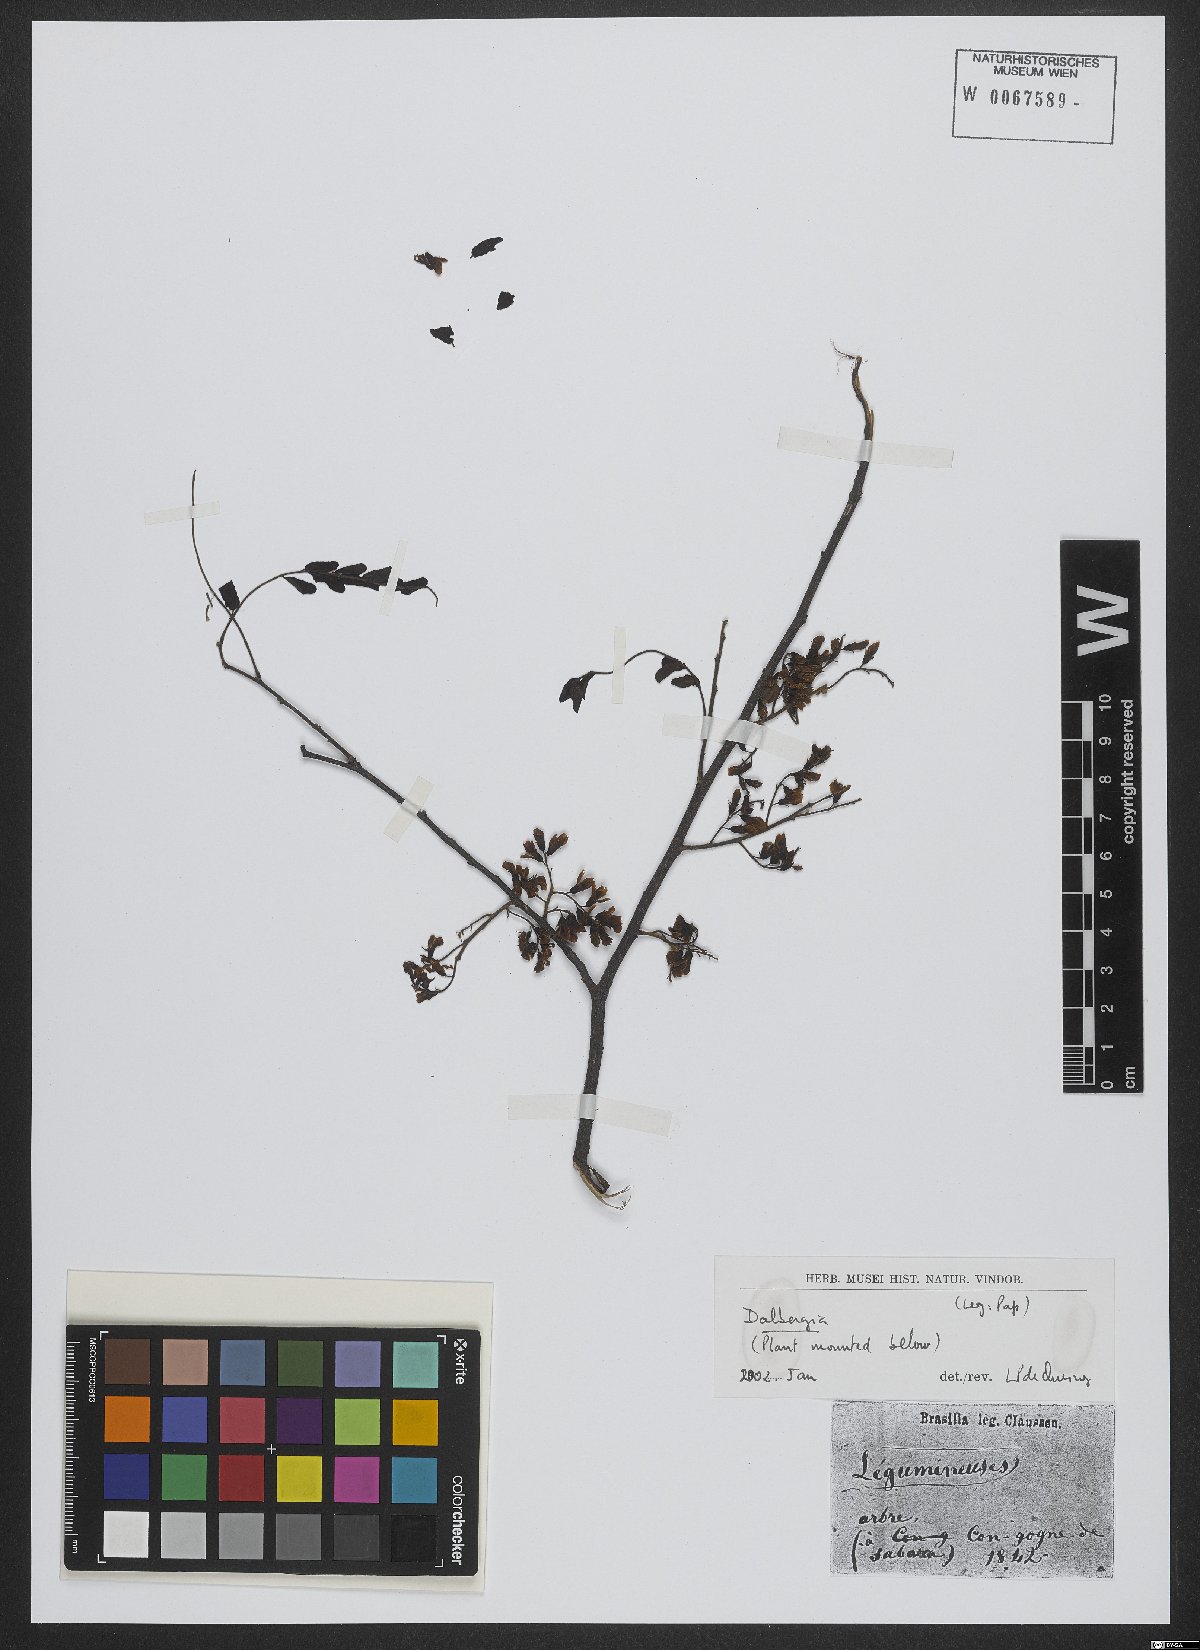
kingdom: Plantae
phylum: Tracheophyta
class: Magnoliopsida
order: Fabales
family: Fabaceae
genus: Dalbergia
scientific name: Dalbergia
